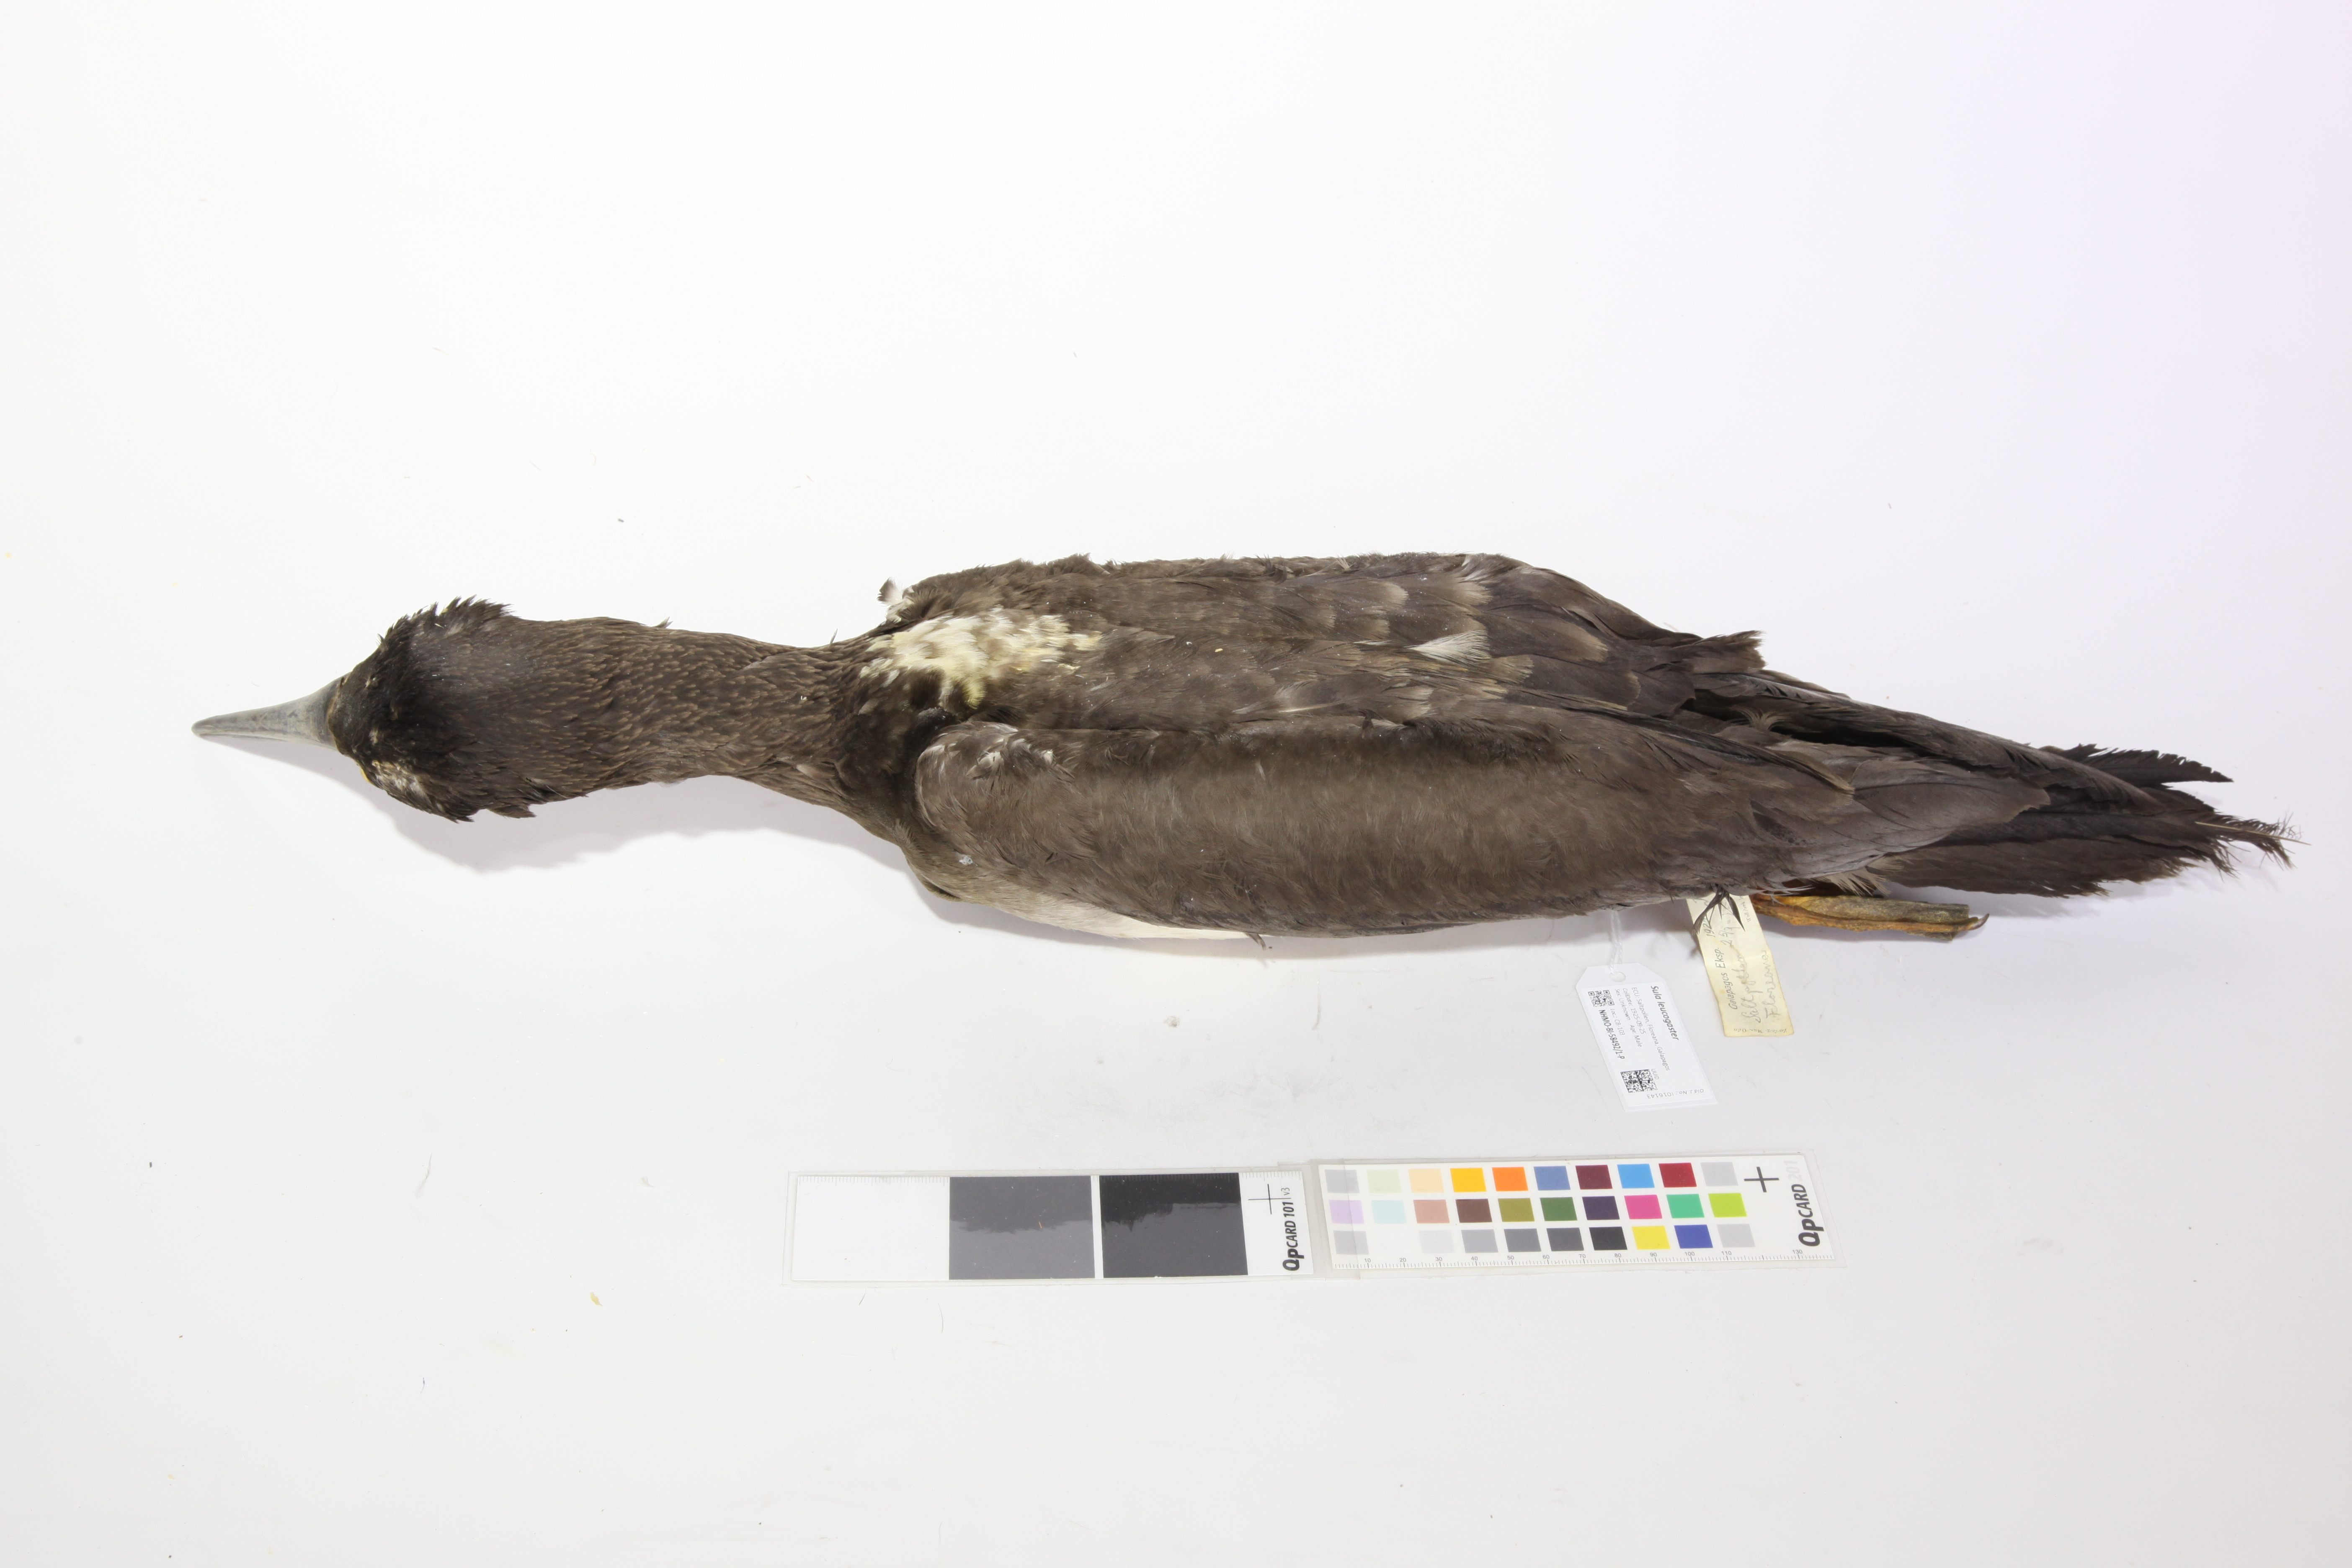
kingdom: Animalia
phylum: Chordata
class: Aves
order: Suliformes
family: Sulidae
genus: Sula
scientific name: Sula leucogaster
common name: Brown booby
